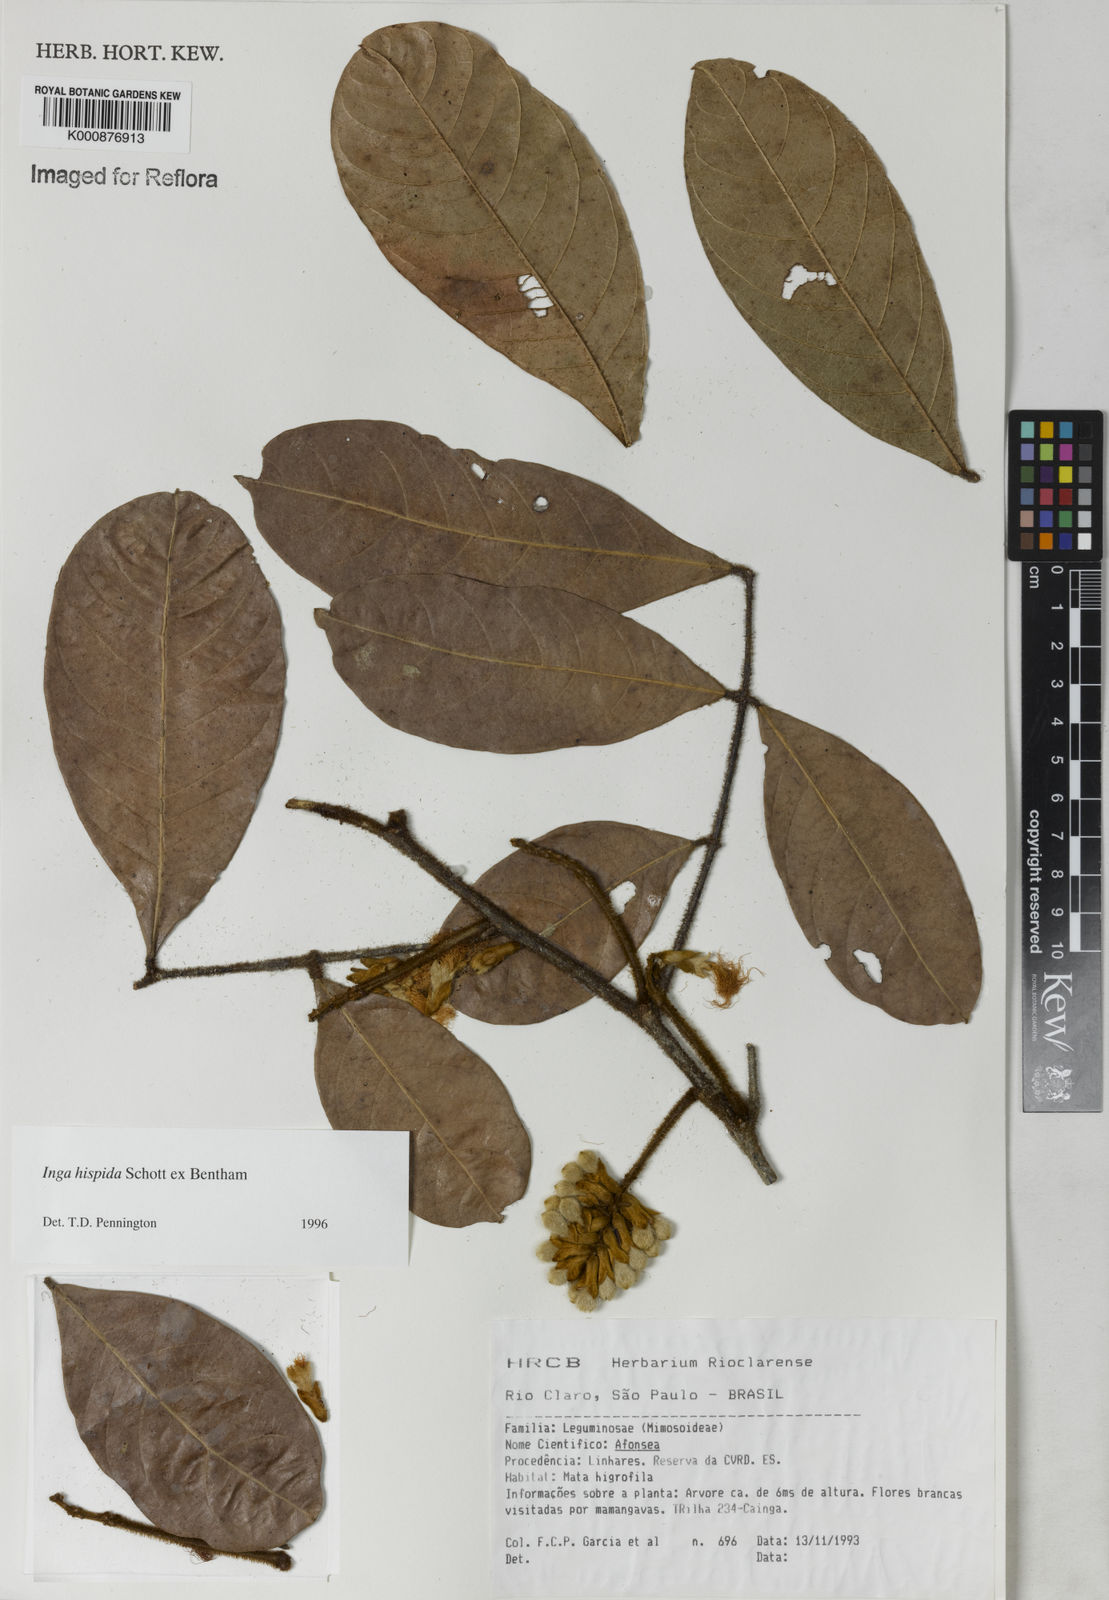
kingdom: Plantae
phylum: Tracheophyta
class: Magnoliopsida
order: Fabales
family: Fabaceae
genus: Inga
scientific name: Inga hispida
